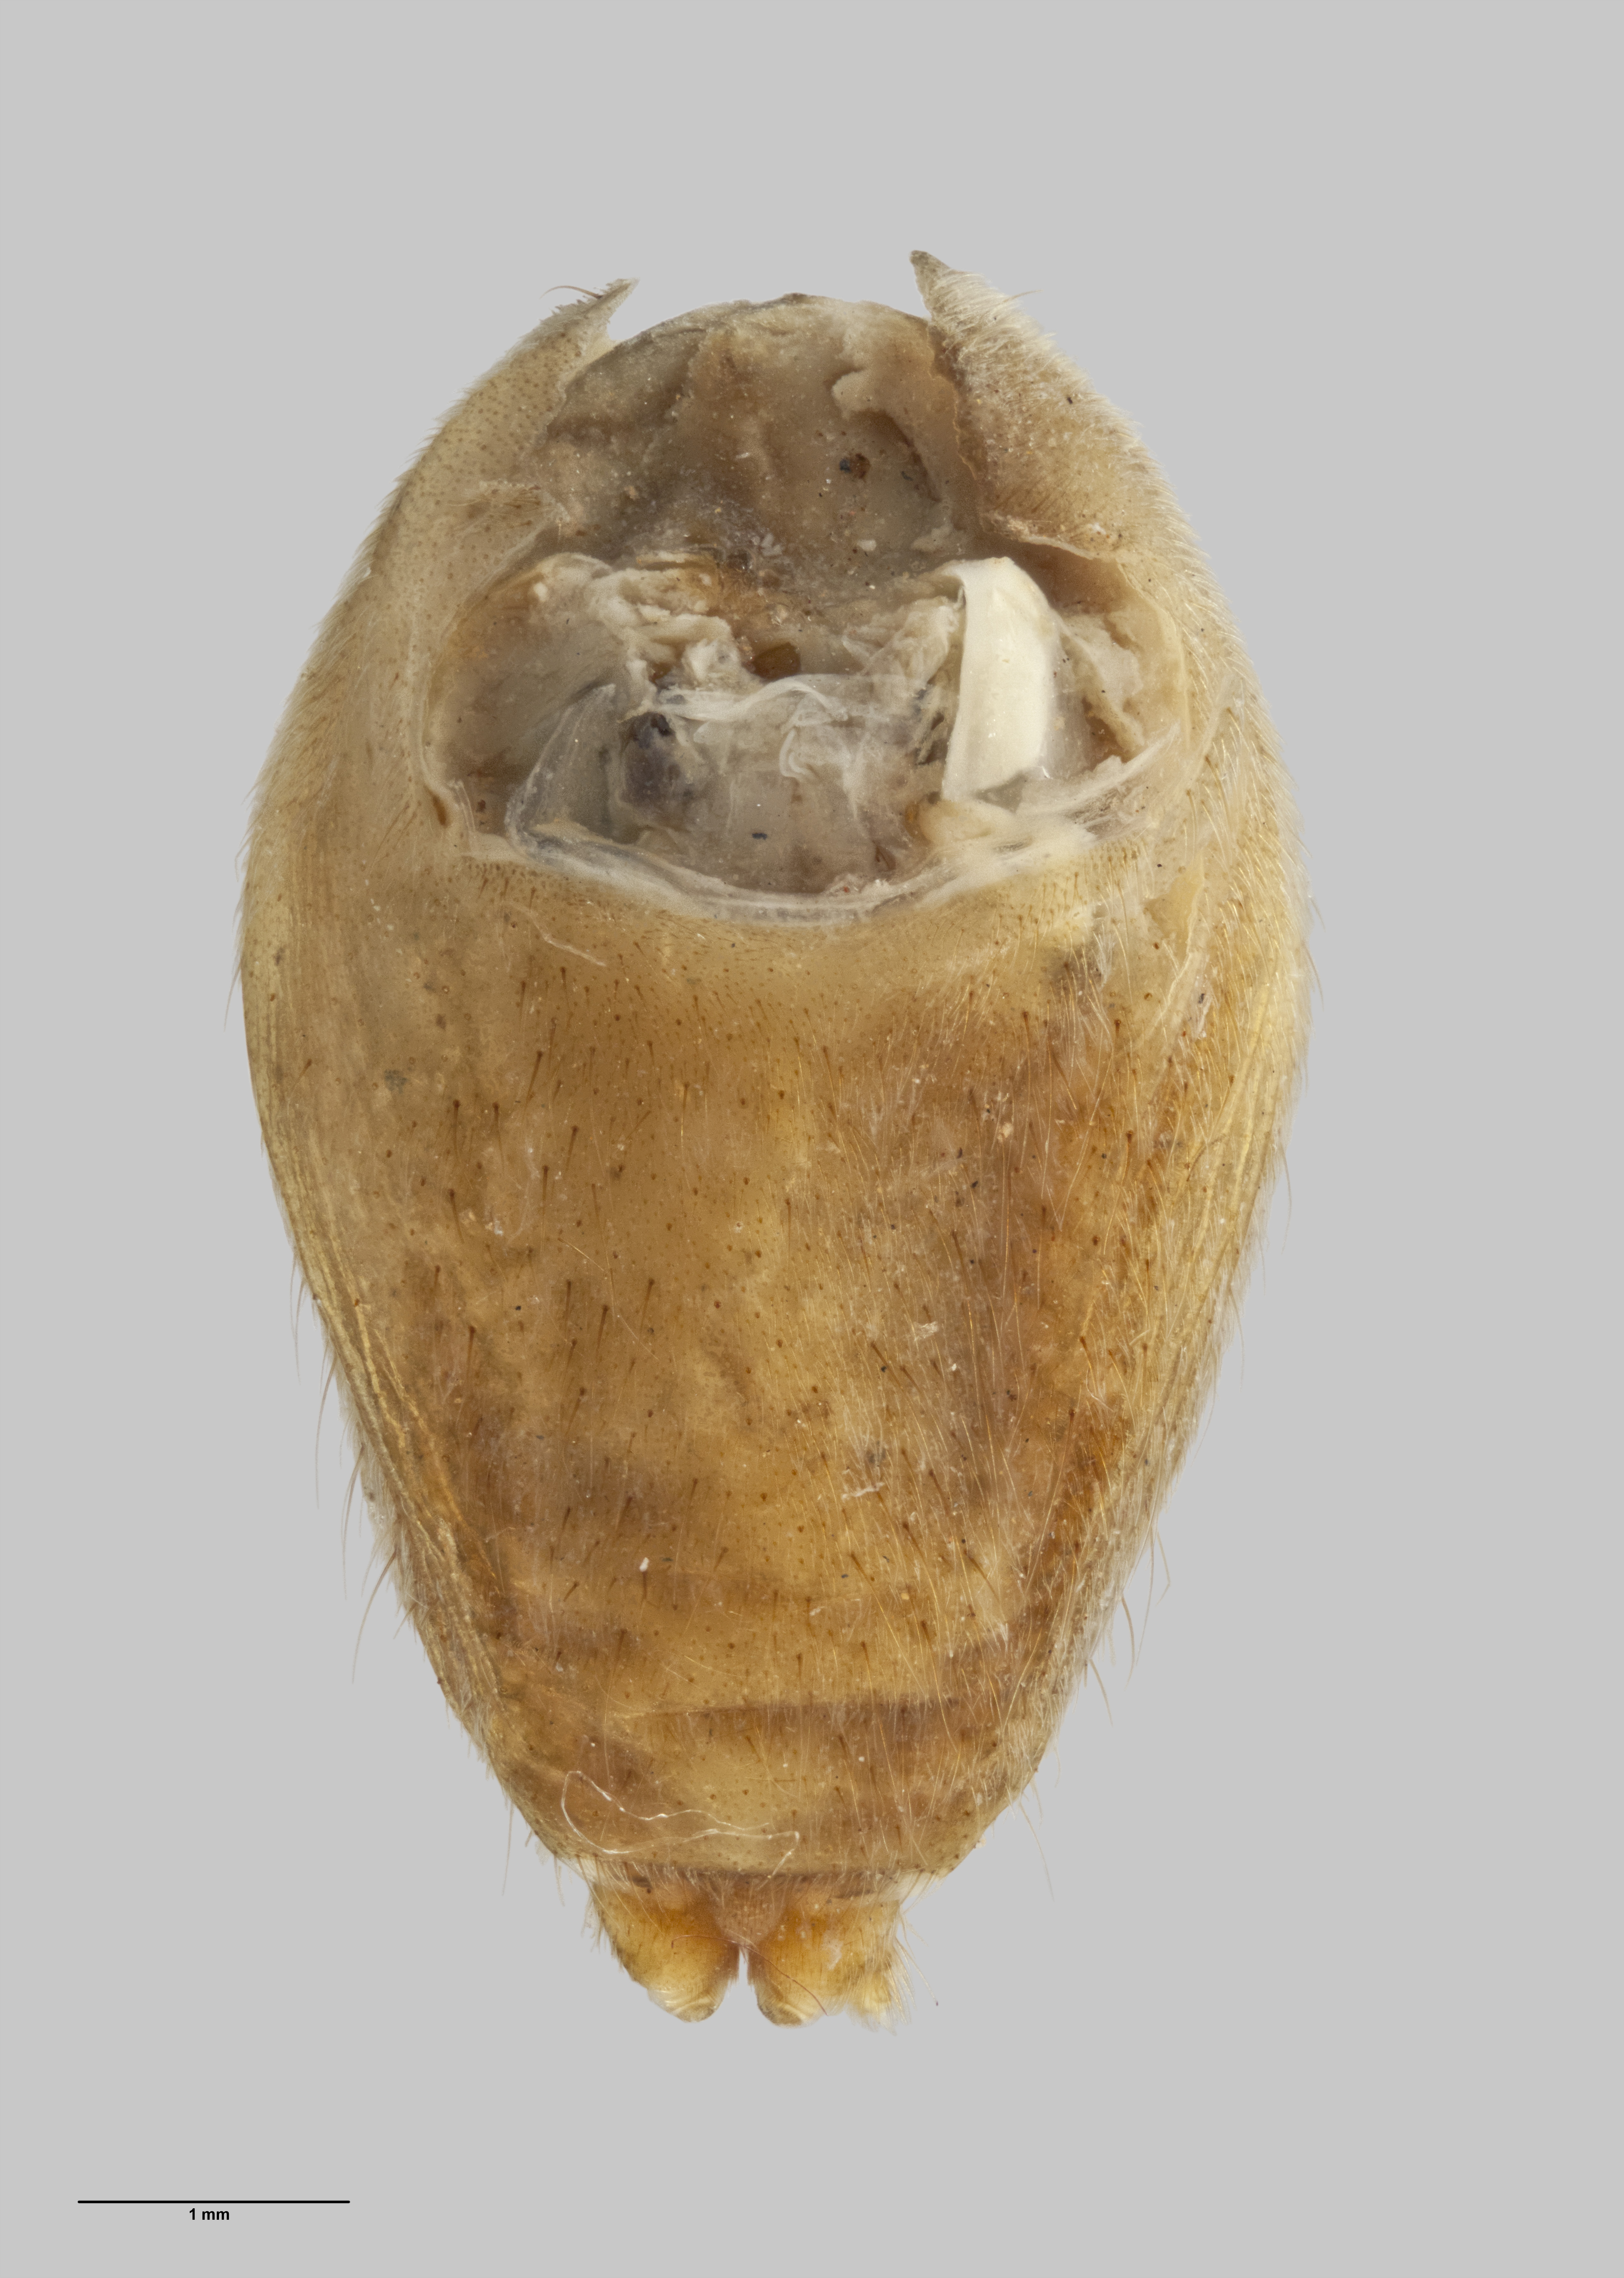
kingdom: Animalia
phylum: Arthropoda
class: Arachnida
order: Araneae
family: Desidae
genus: Cambridgea
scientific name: Cambridgea turbotti
